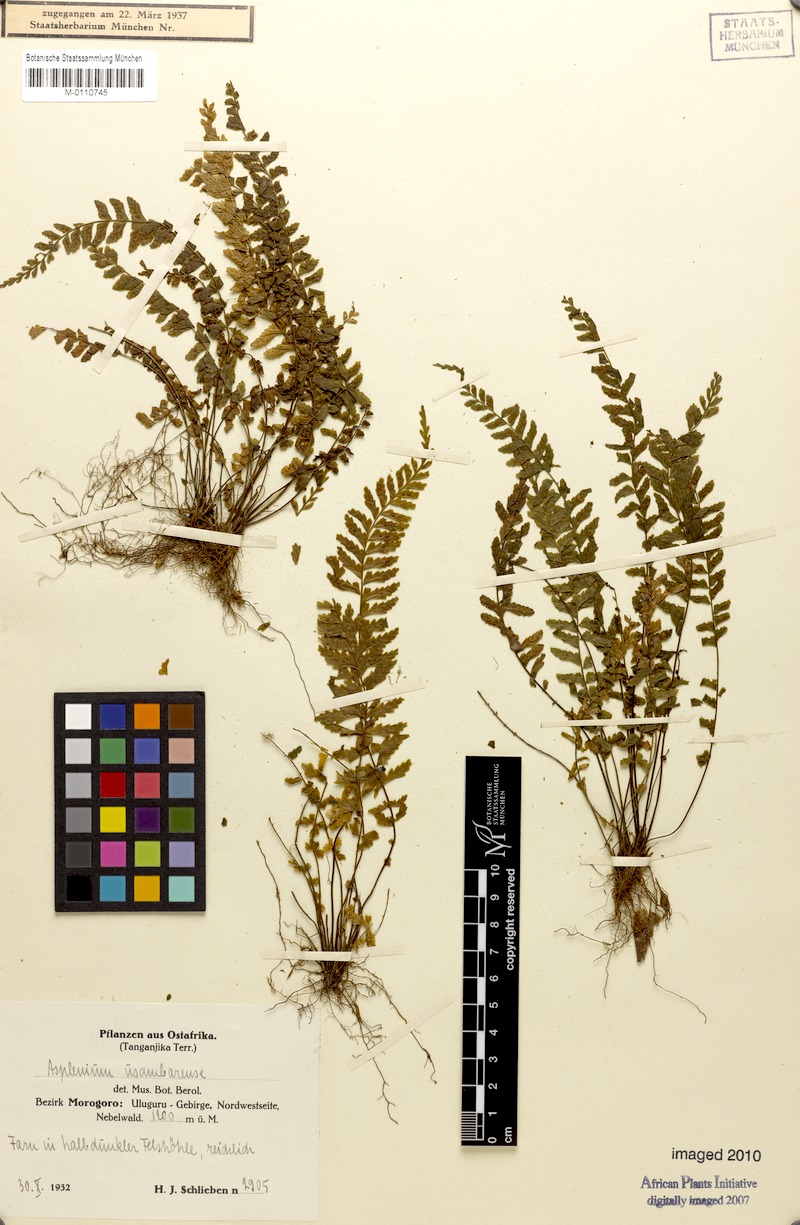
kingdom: Plantae
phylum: Tracheophyta
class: Polypodiopsida
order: Polypodiales
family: Aspleniaceae
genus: Asplenium
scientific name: Asplenium erectum
